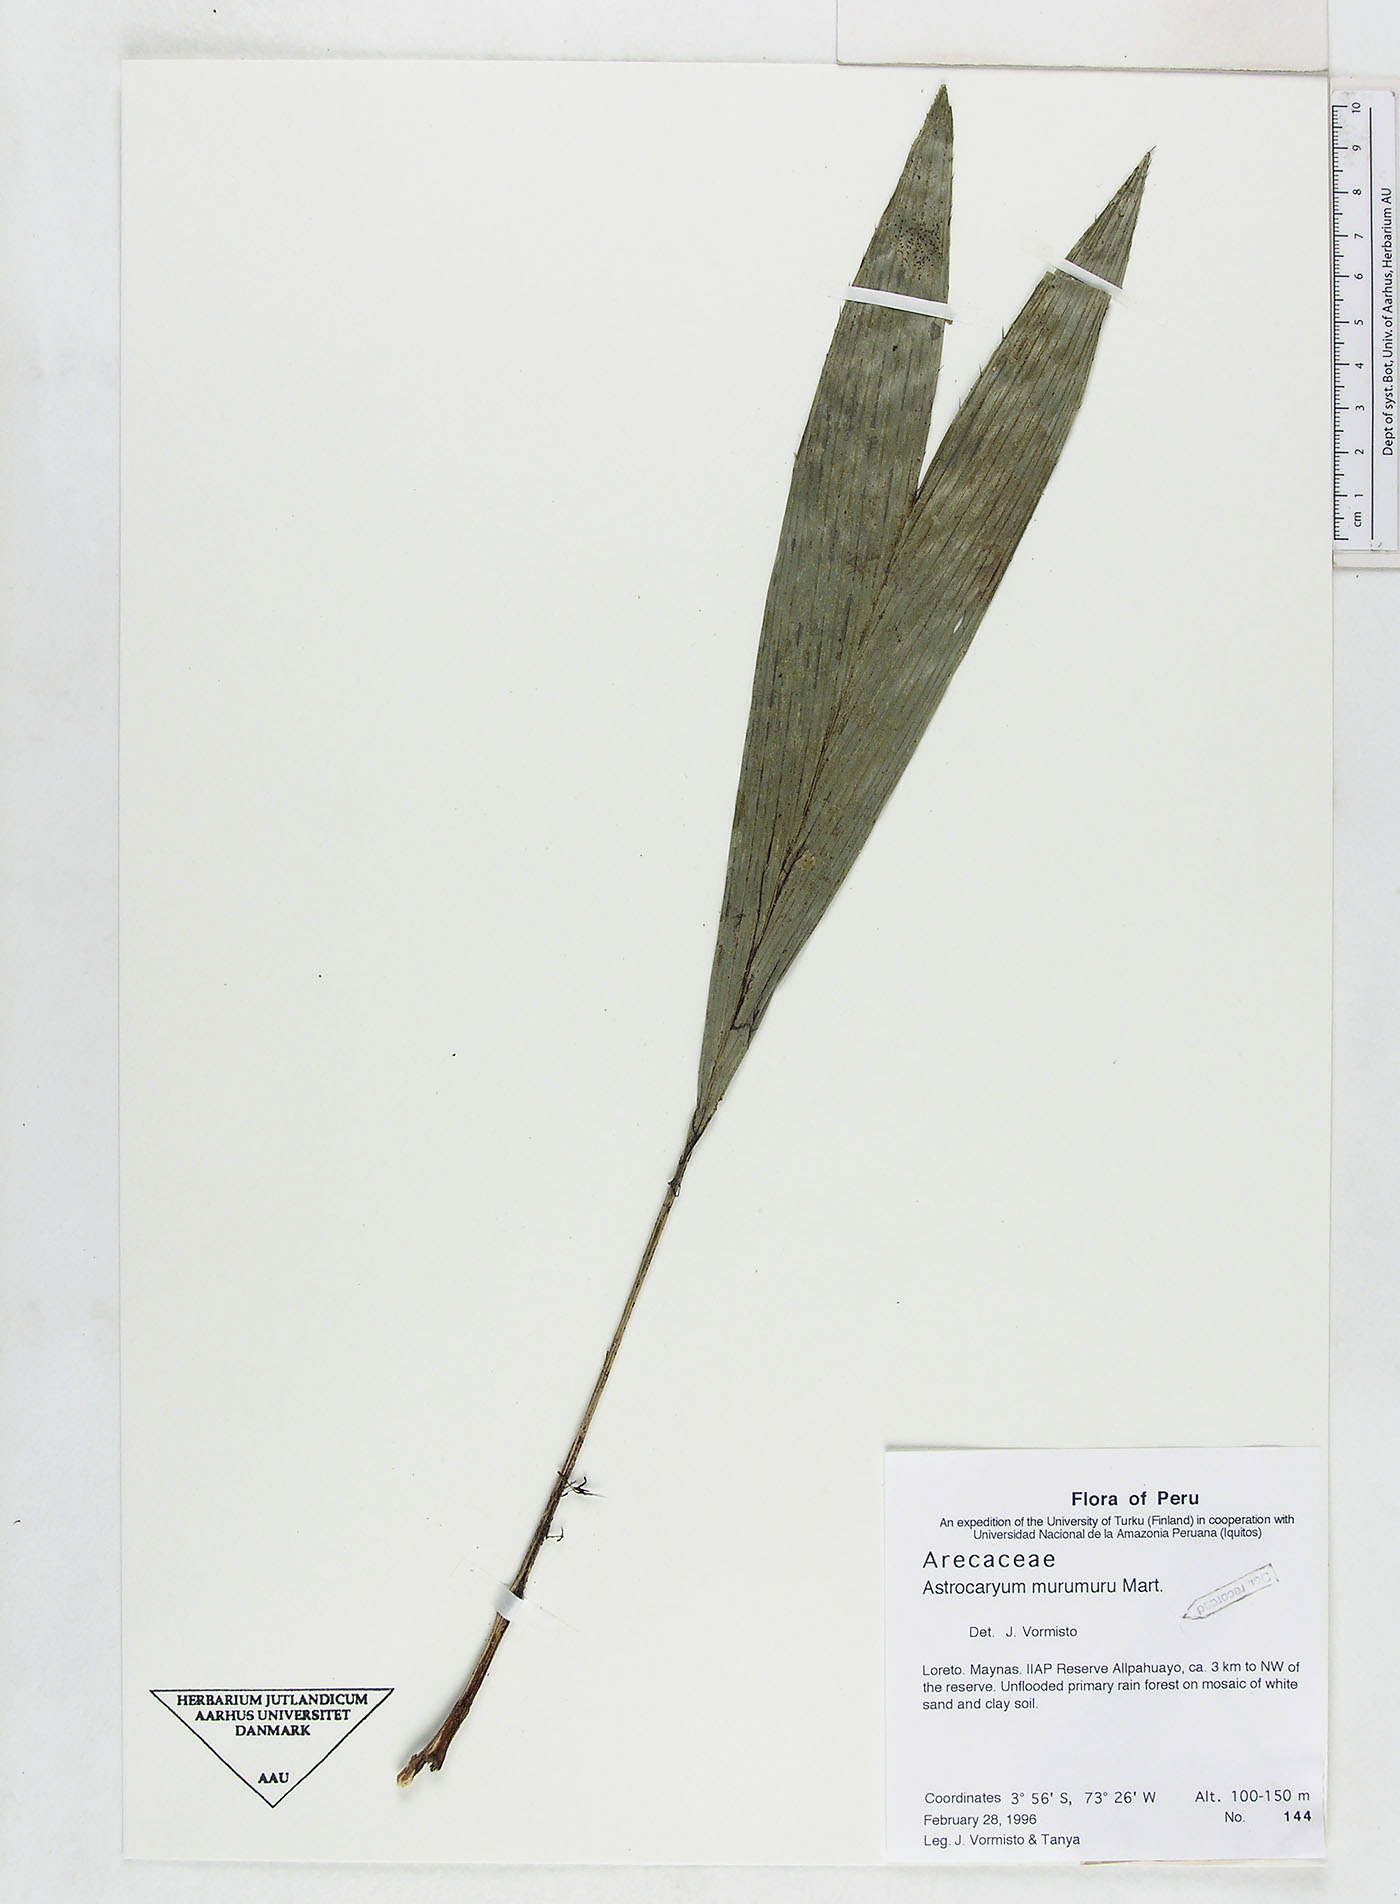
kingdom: Plantae
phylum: Tracheophyta
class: Liliopsida
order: Arecales
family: Arecaceae
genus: Astrocaryum
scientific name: Astrocaryum murumuru
